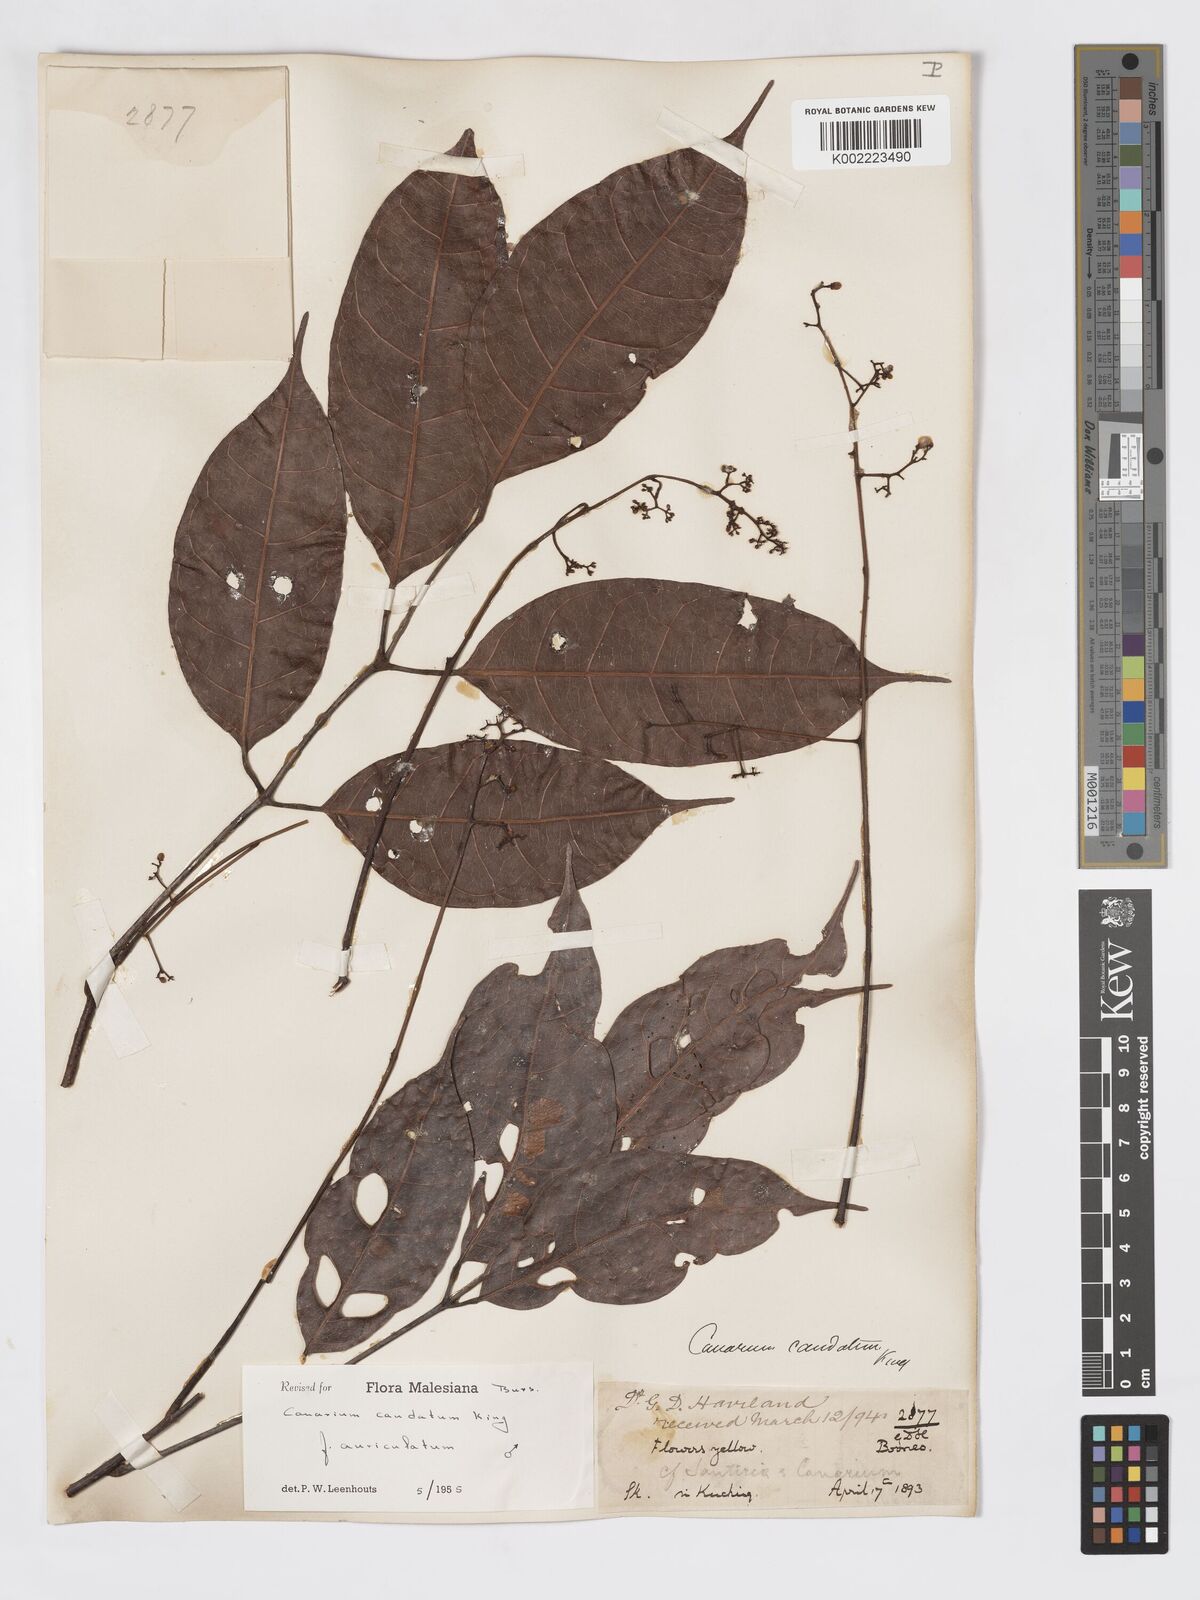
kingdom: Plantae
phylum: Tracheophyta
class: Magnoliopsida
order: Sapindales
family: Burseraceae
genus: Canarium
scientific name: Canarium caudatum
